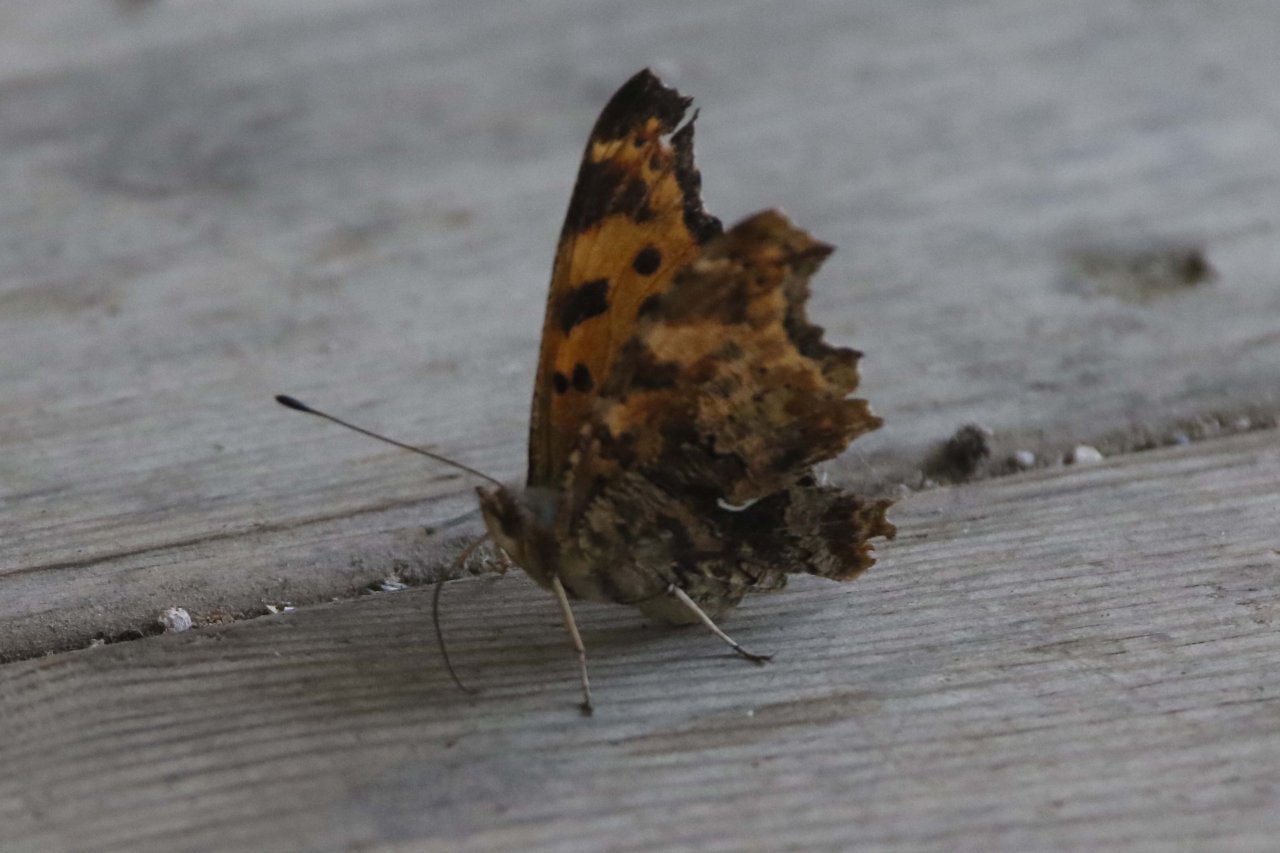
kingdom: Animalia
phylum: Arthropoda
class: Insecta
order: Lepidoptera
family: Nymphalidae
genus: Polygonia
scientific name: Polygonia comma
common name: Eastern Comma
